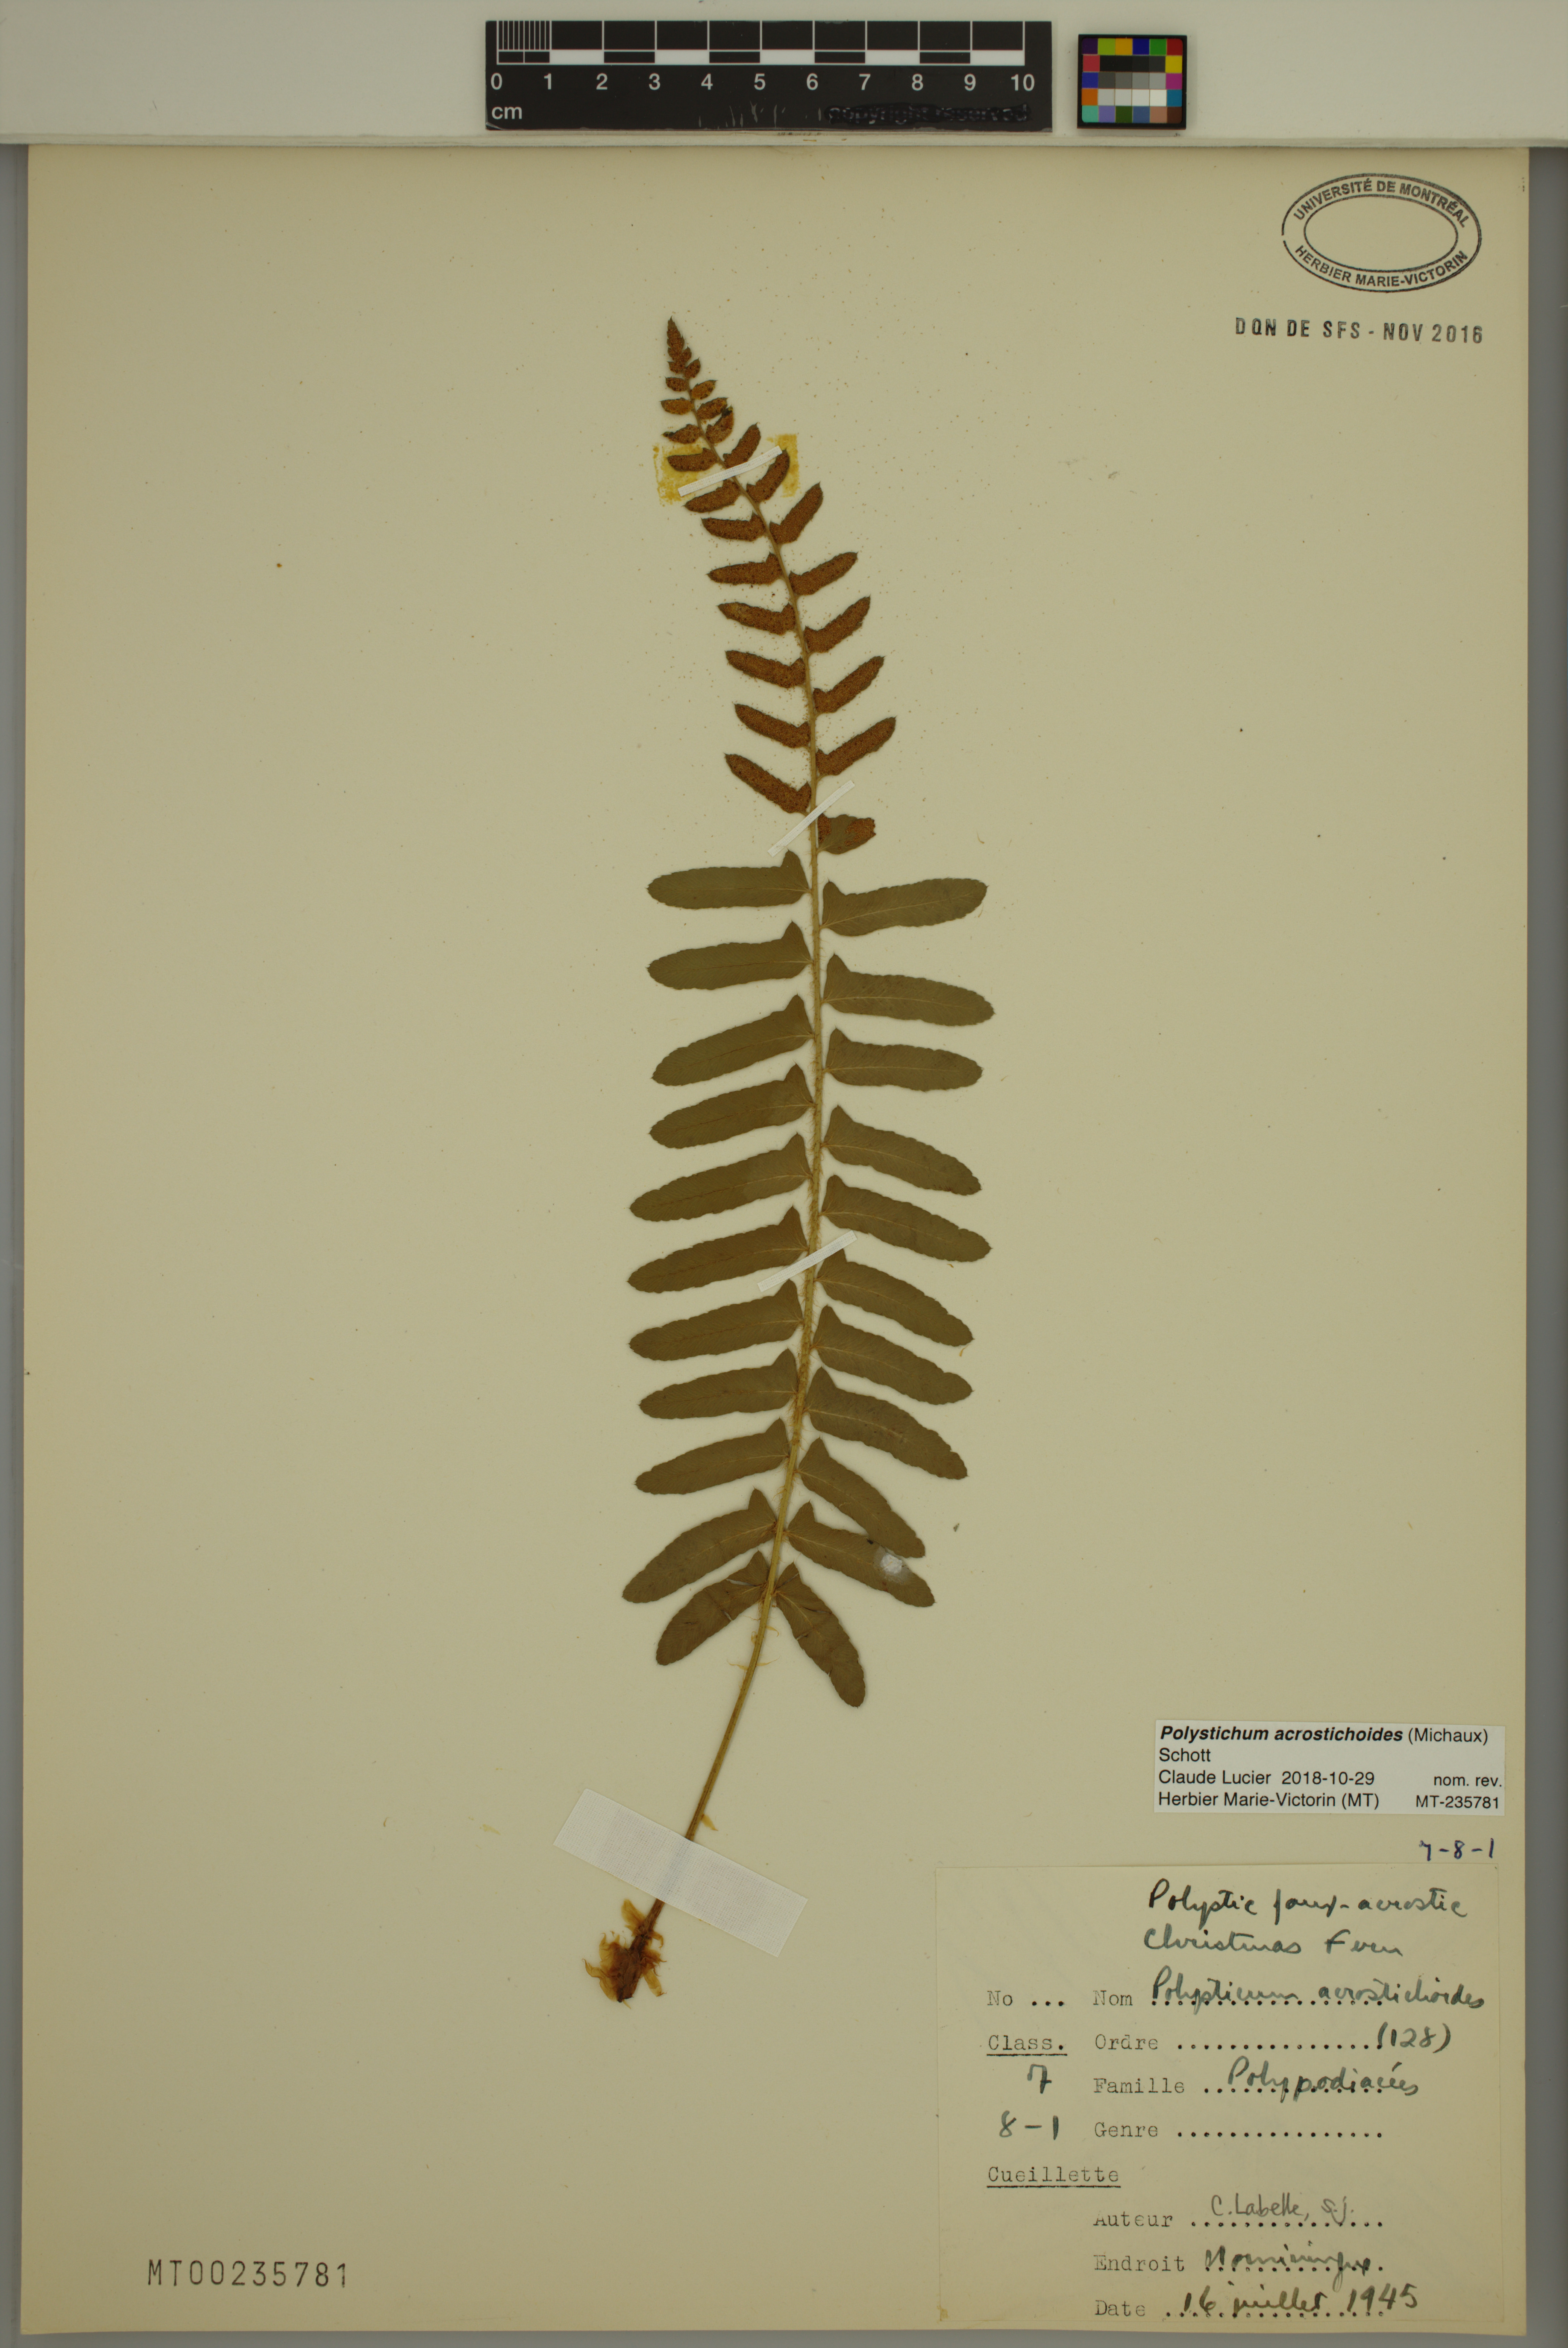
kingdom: Plantae
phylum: Tracheophyta
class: Polypodiopsida
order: Polypodiales
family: Dryopteridaceae
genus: Polystichum
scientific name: Polystichum acrostichoides
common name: Christmas fern
